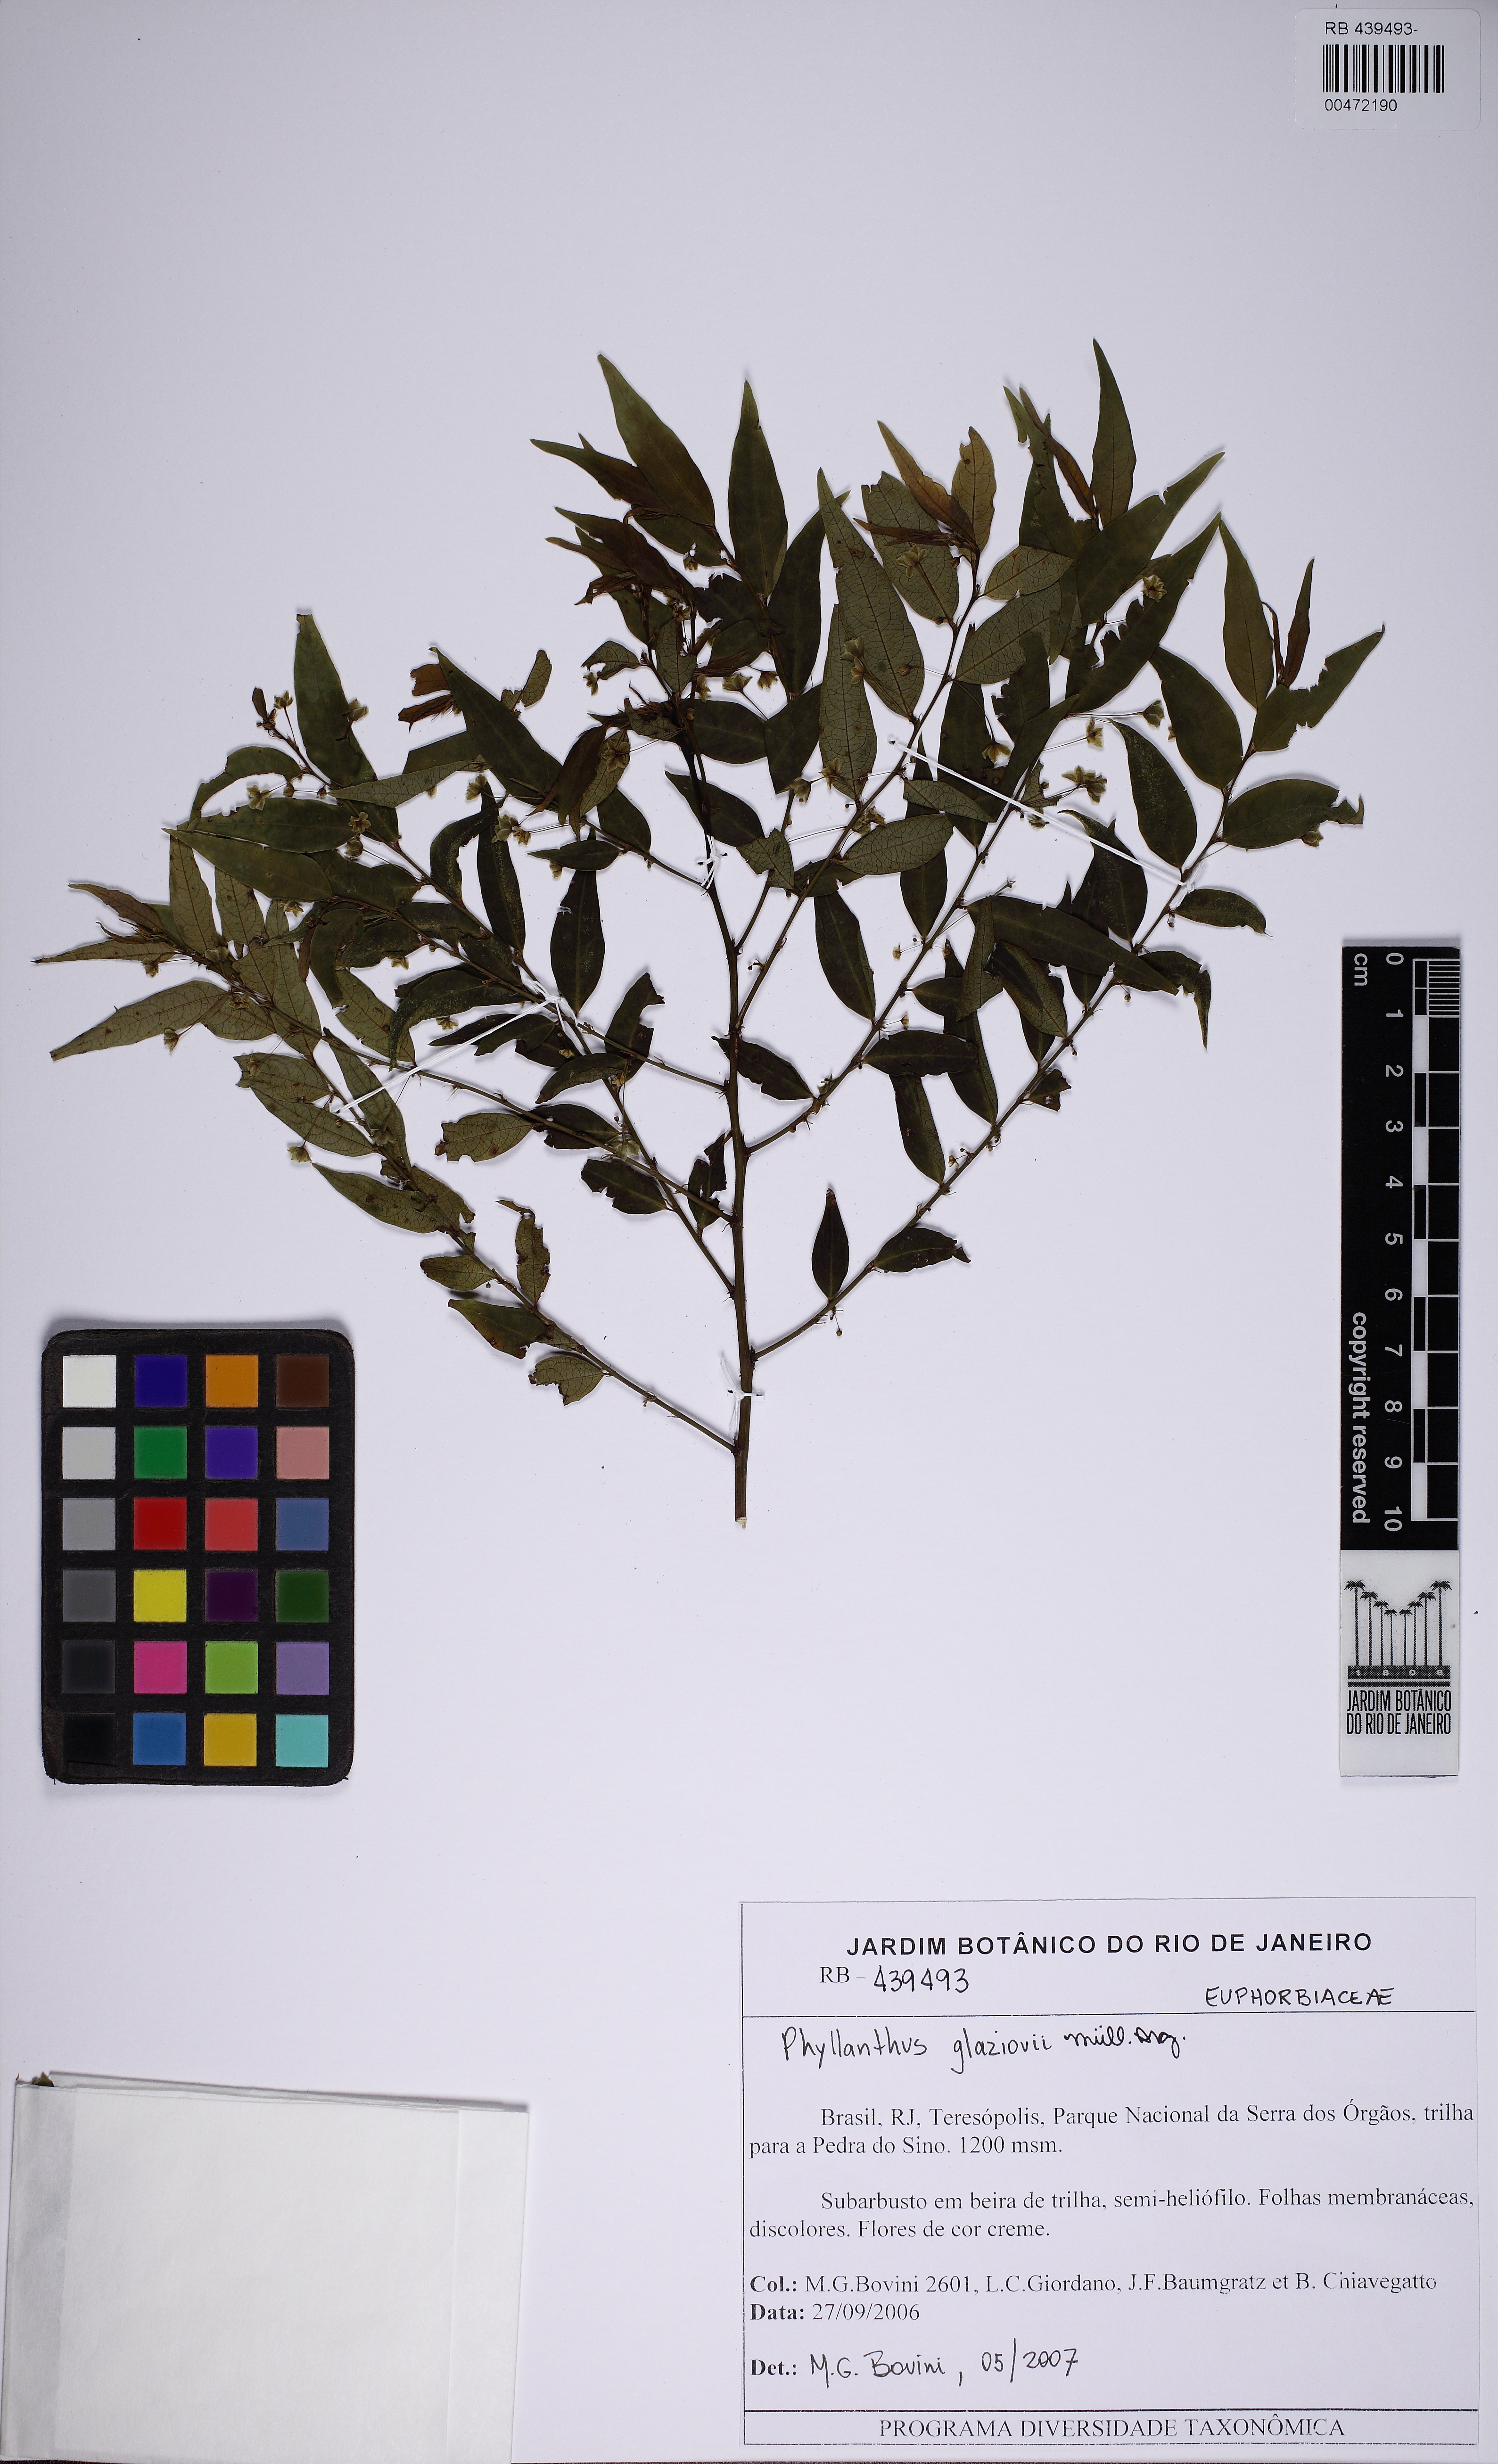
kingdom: Plantae
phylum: Tracheophyta
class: Magnoliopsida
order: Malpighiales
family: Phyllanthaceae
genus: Phyllanthus
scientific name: Phyllanthus glaziovii
